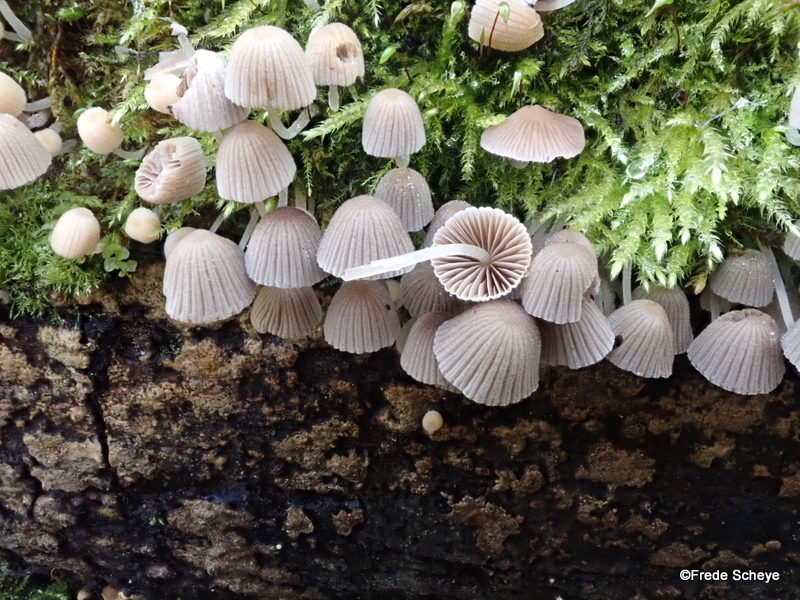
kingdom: Fungi
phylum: Basidiomycota
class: Agaricomycetes
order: Agaricales
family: Psathyrellaceae
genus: Coprinellus
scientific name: Coprinellus disseminatus
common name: bredsået blækhat
